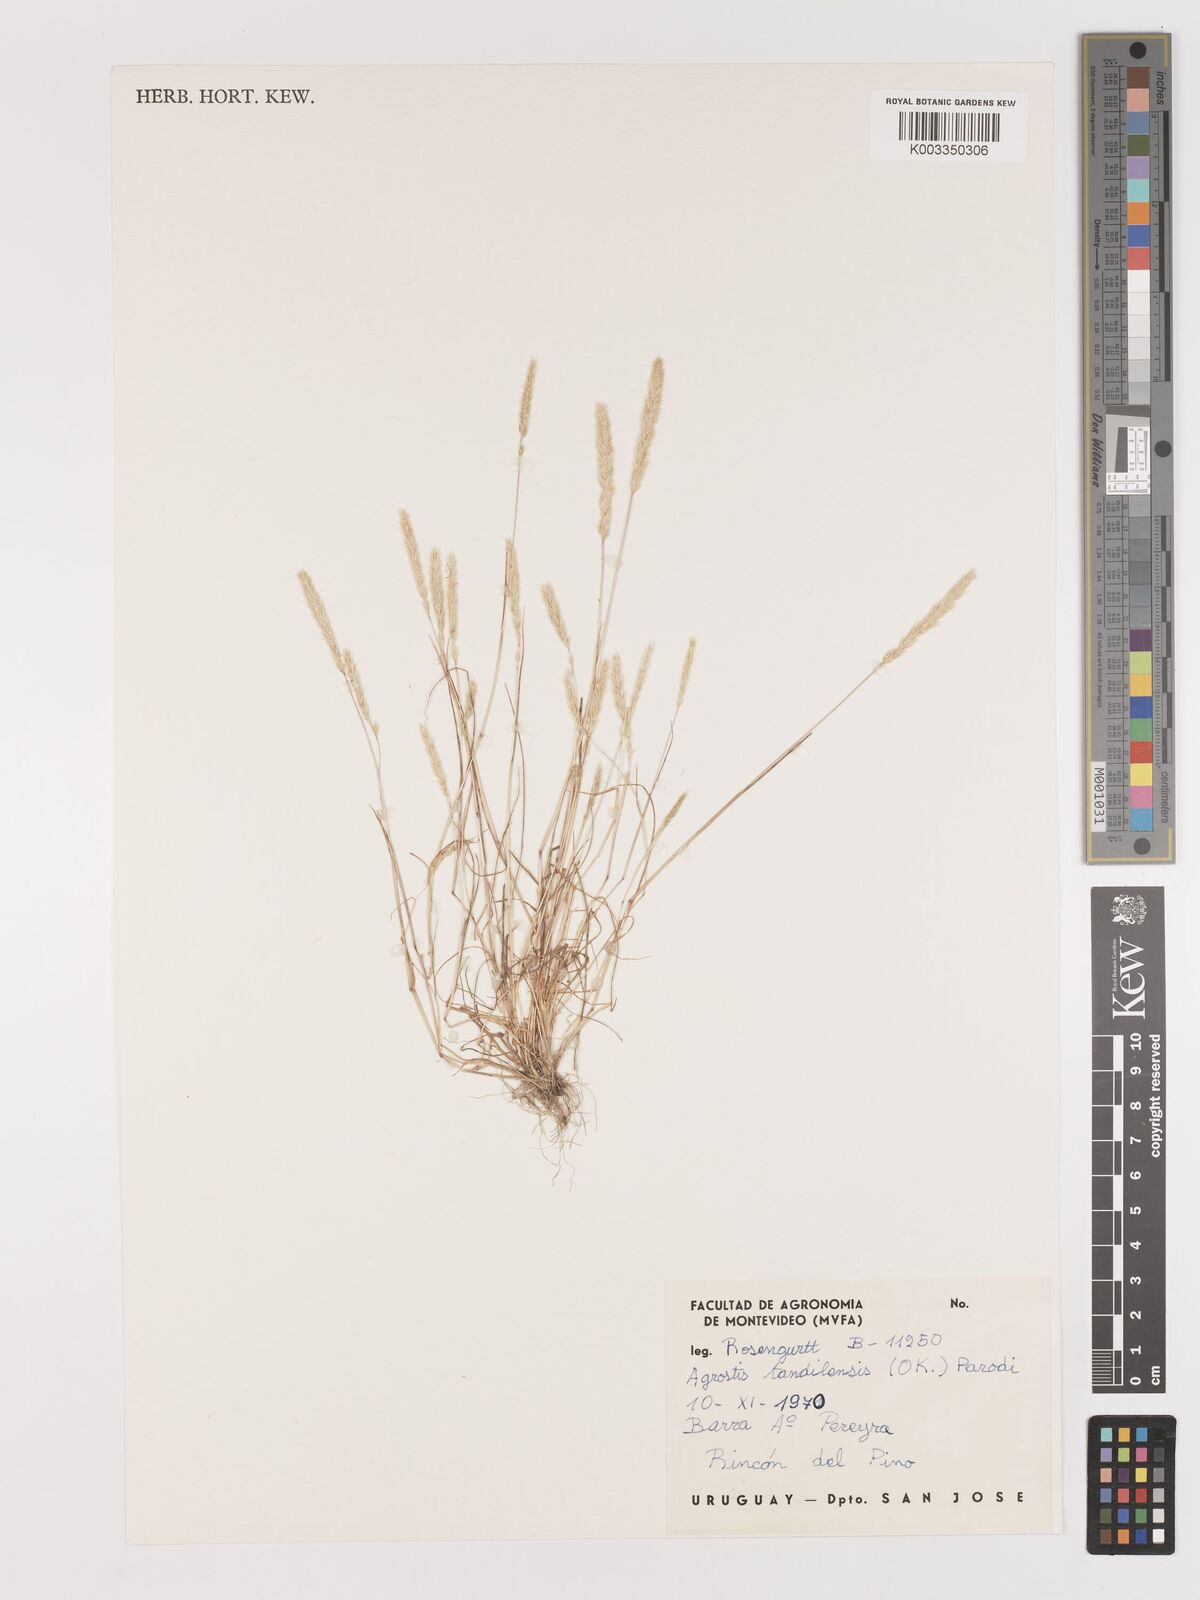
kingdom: Plantae
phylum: Tracheophyta
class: Liliopsida
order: Poales
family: Poaceae
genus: Agrostis
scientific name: Agrostis tandilensis
